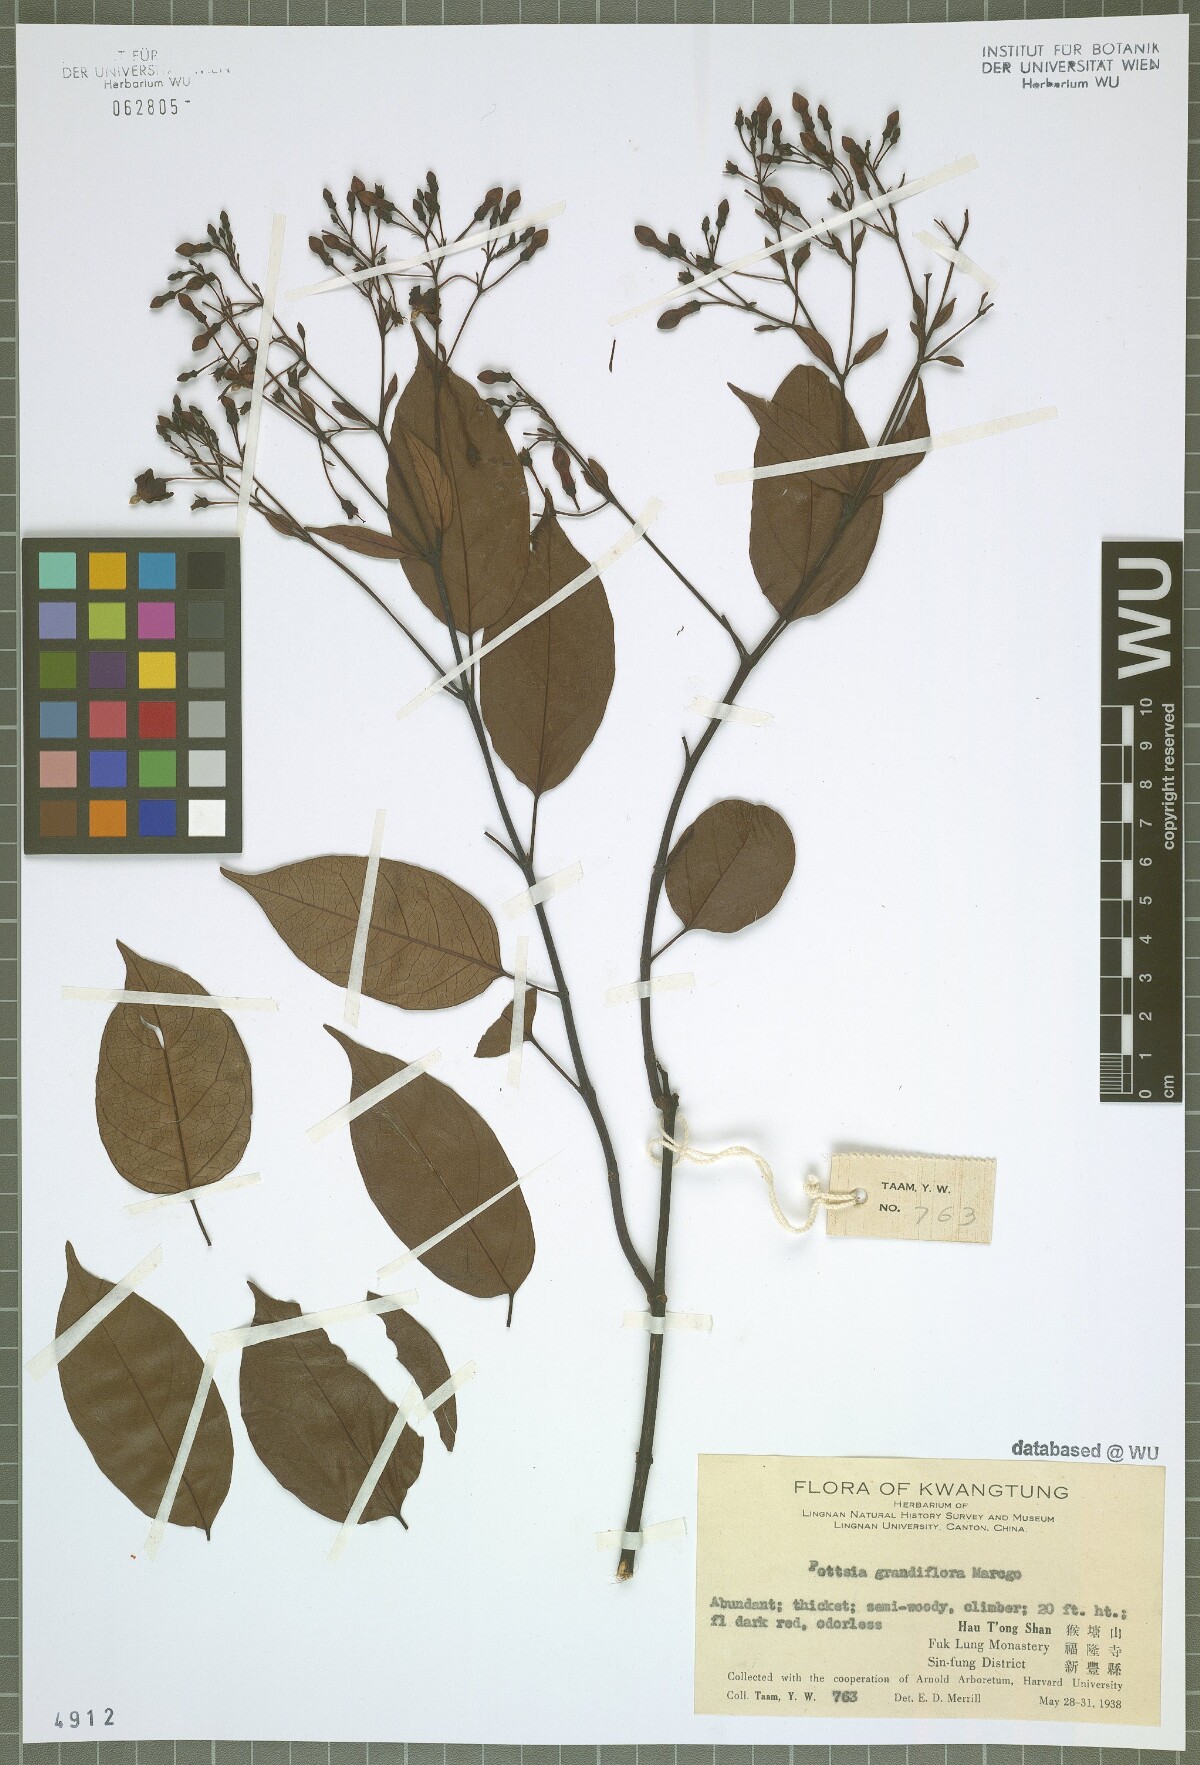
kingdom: Plantae
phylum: Tracheophyta
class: Magnoliopsida
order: Gentianales
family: Apocynaceae
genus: Pottsia
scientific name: Pottsia grandiflora
